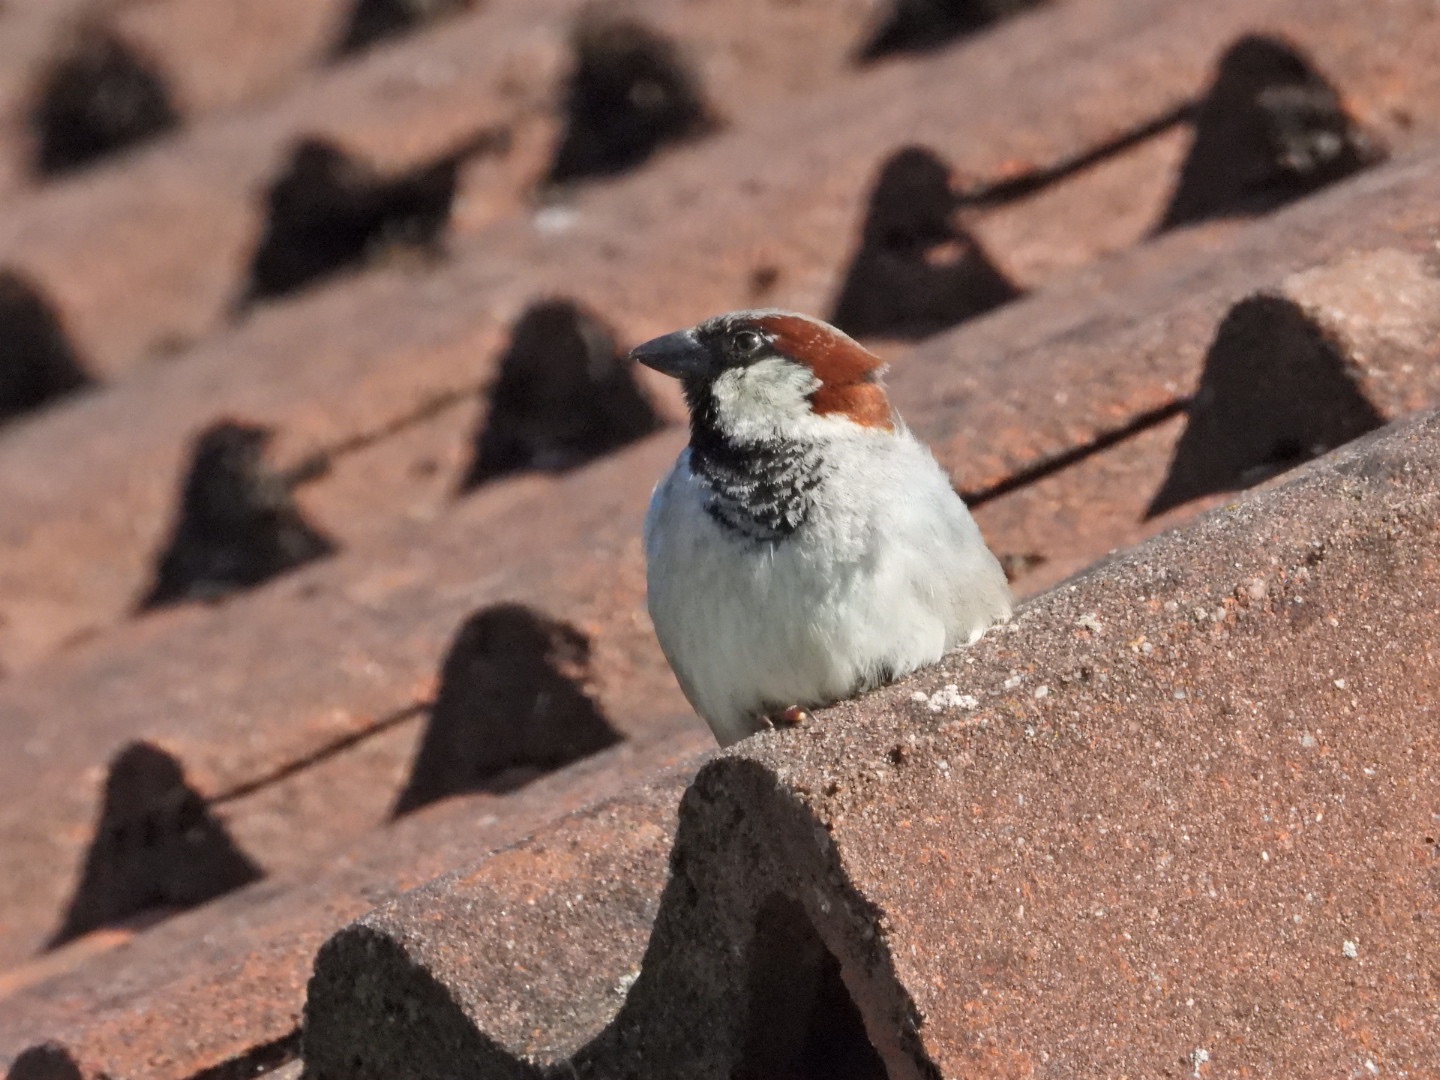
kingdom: Animalia
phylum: Chordata
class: Aves
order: Passeriformes
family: Passeridae
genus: Passer
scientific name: Passer domesticus
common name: Gråspurv
